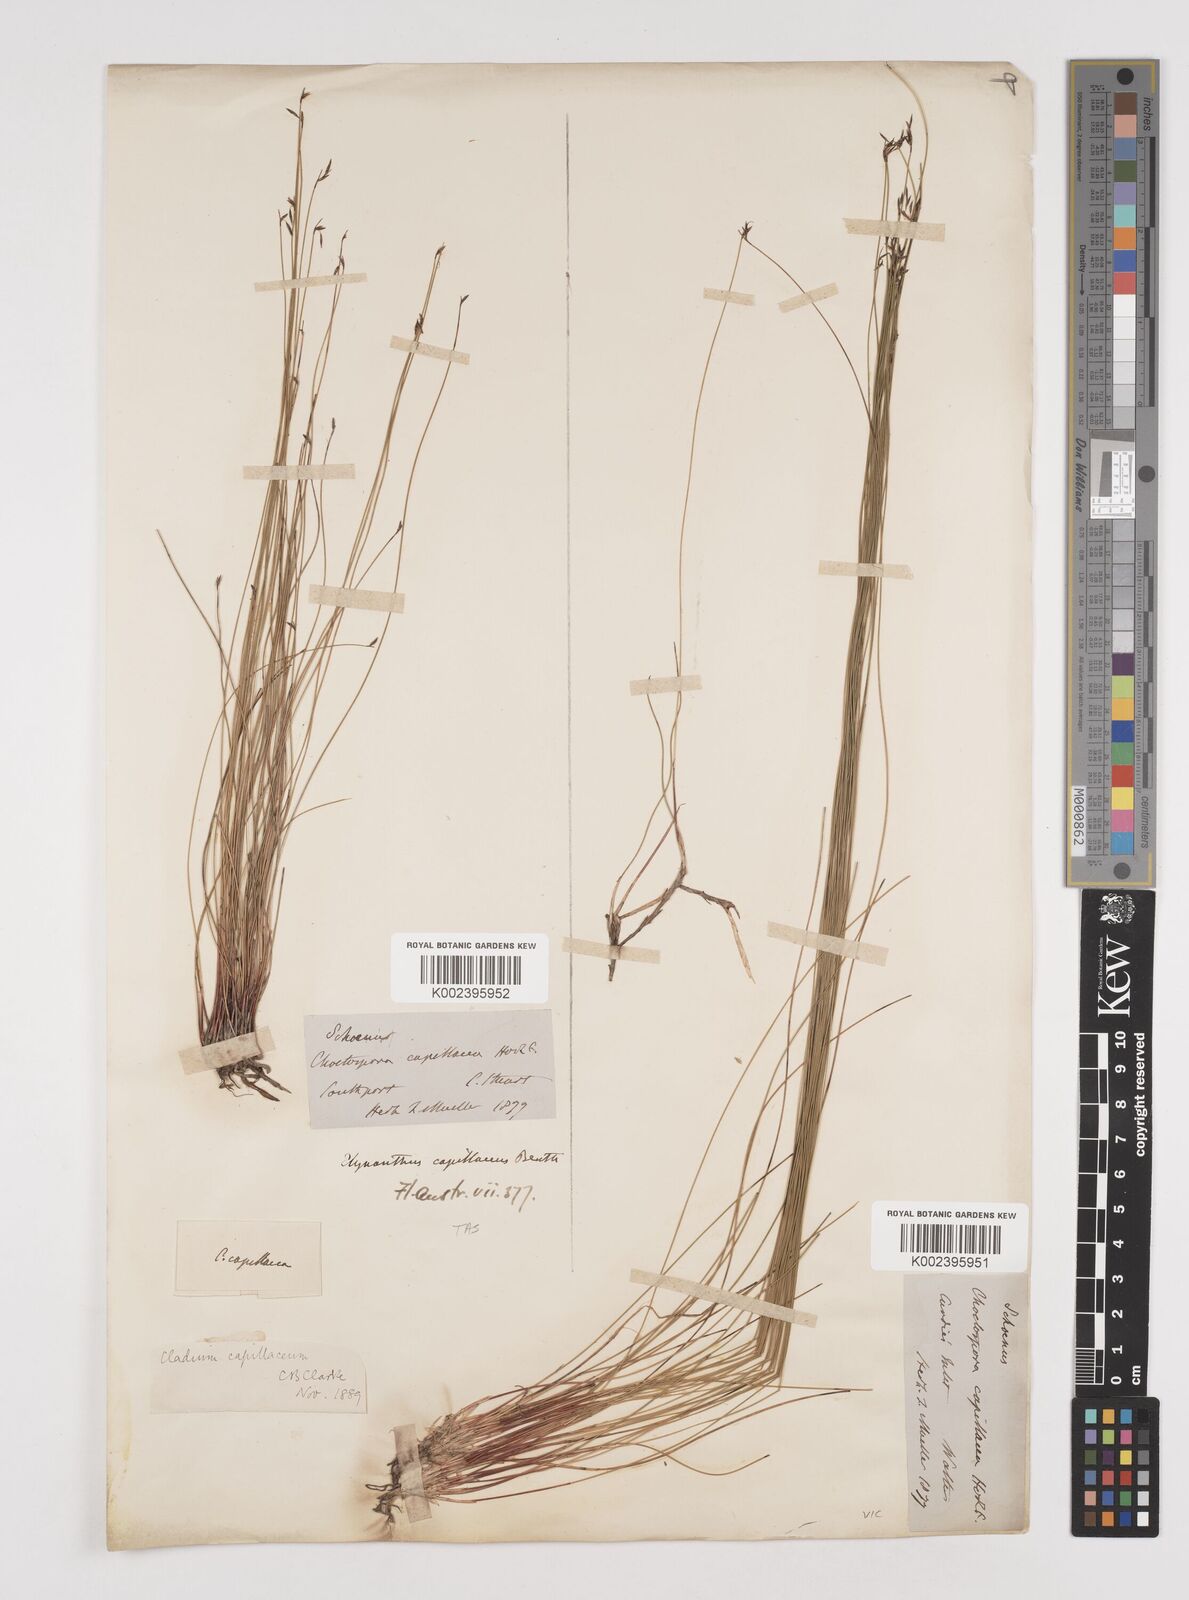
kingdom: Plantae
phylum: Tracheophyta
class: Liliopsida
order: Poales
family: Cyperaceae
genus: Tetraria
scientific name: Tetraria capillaris
